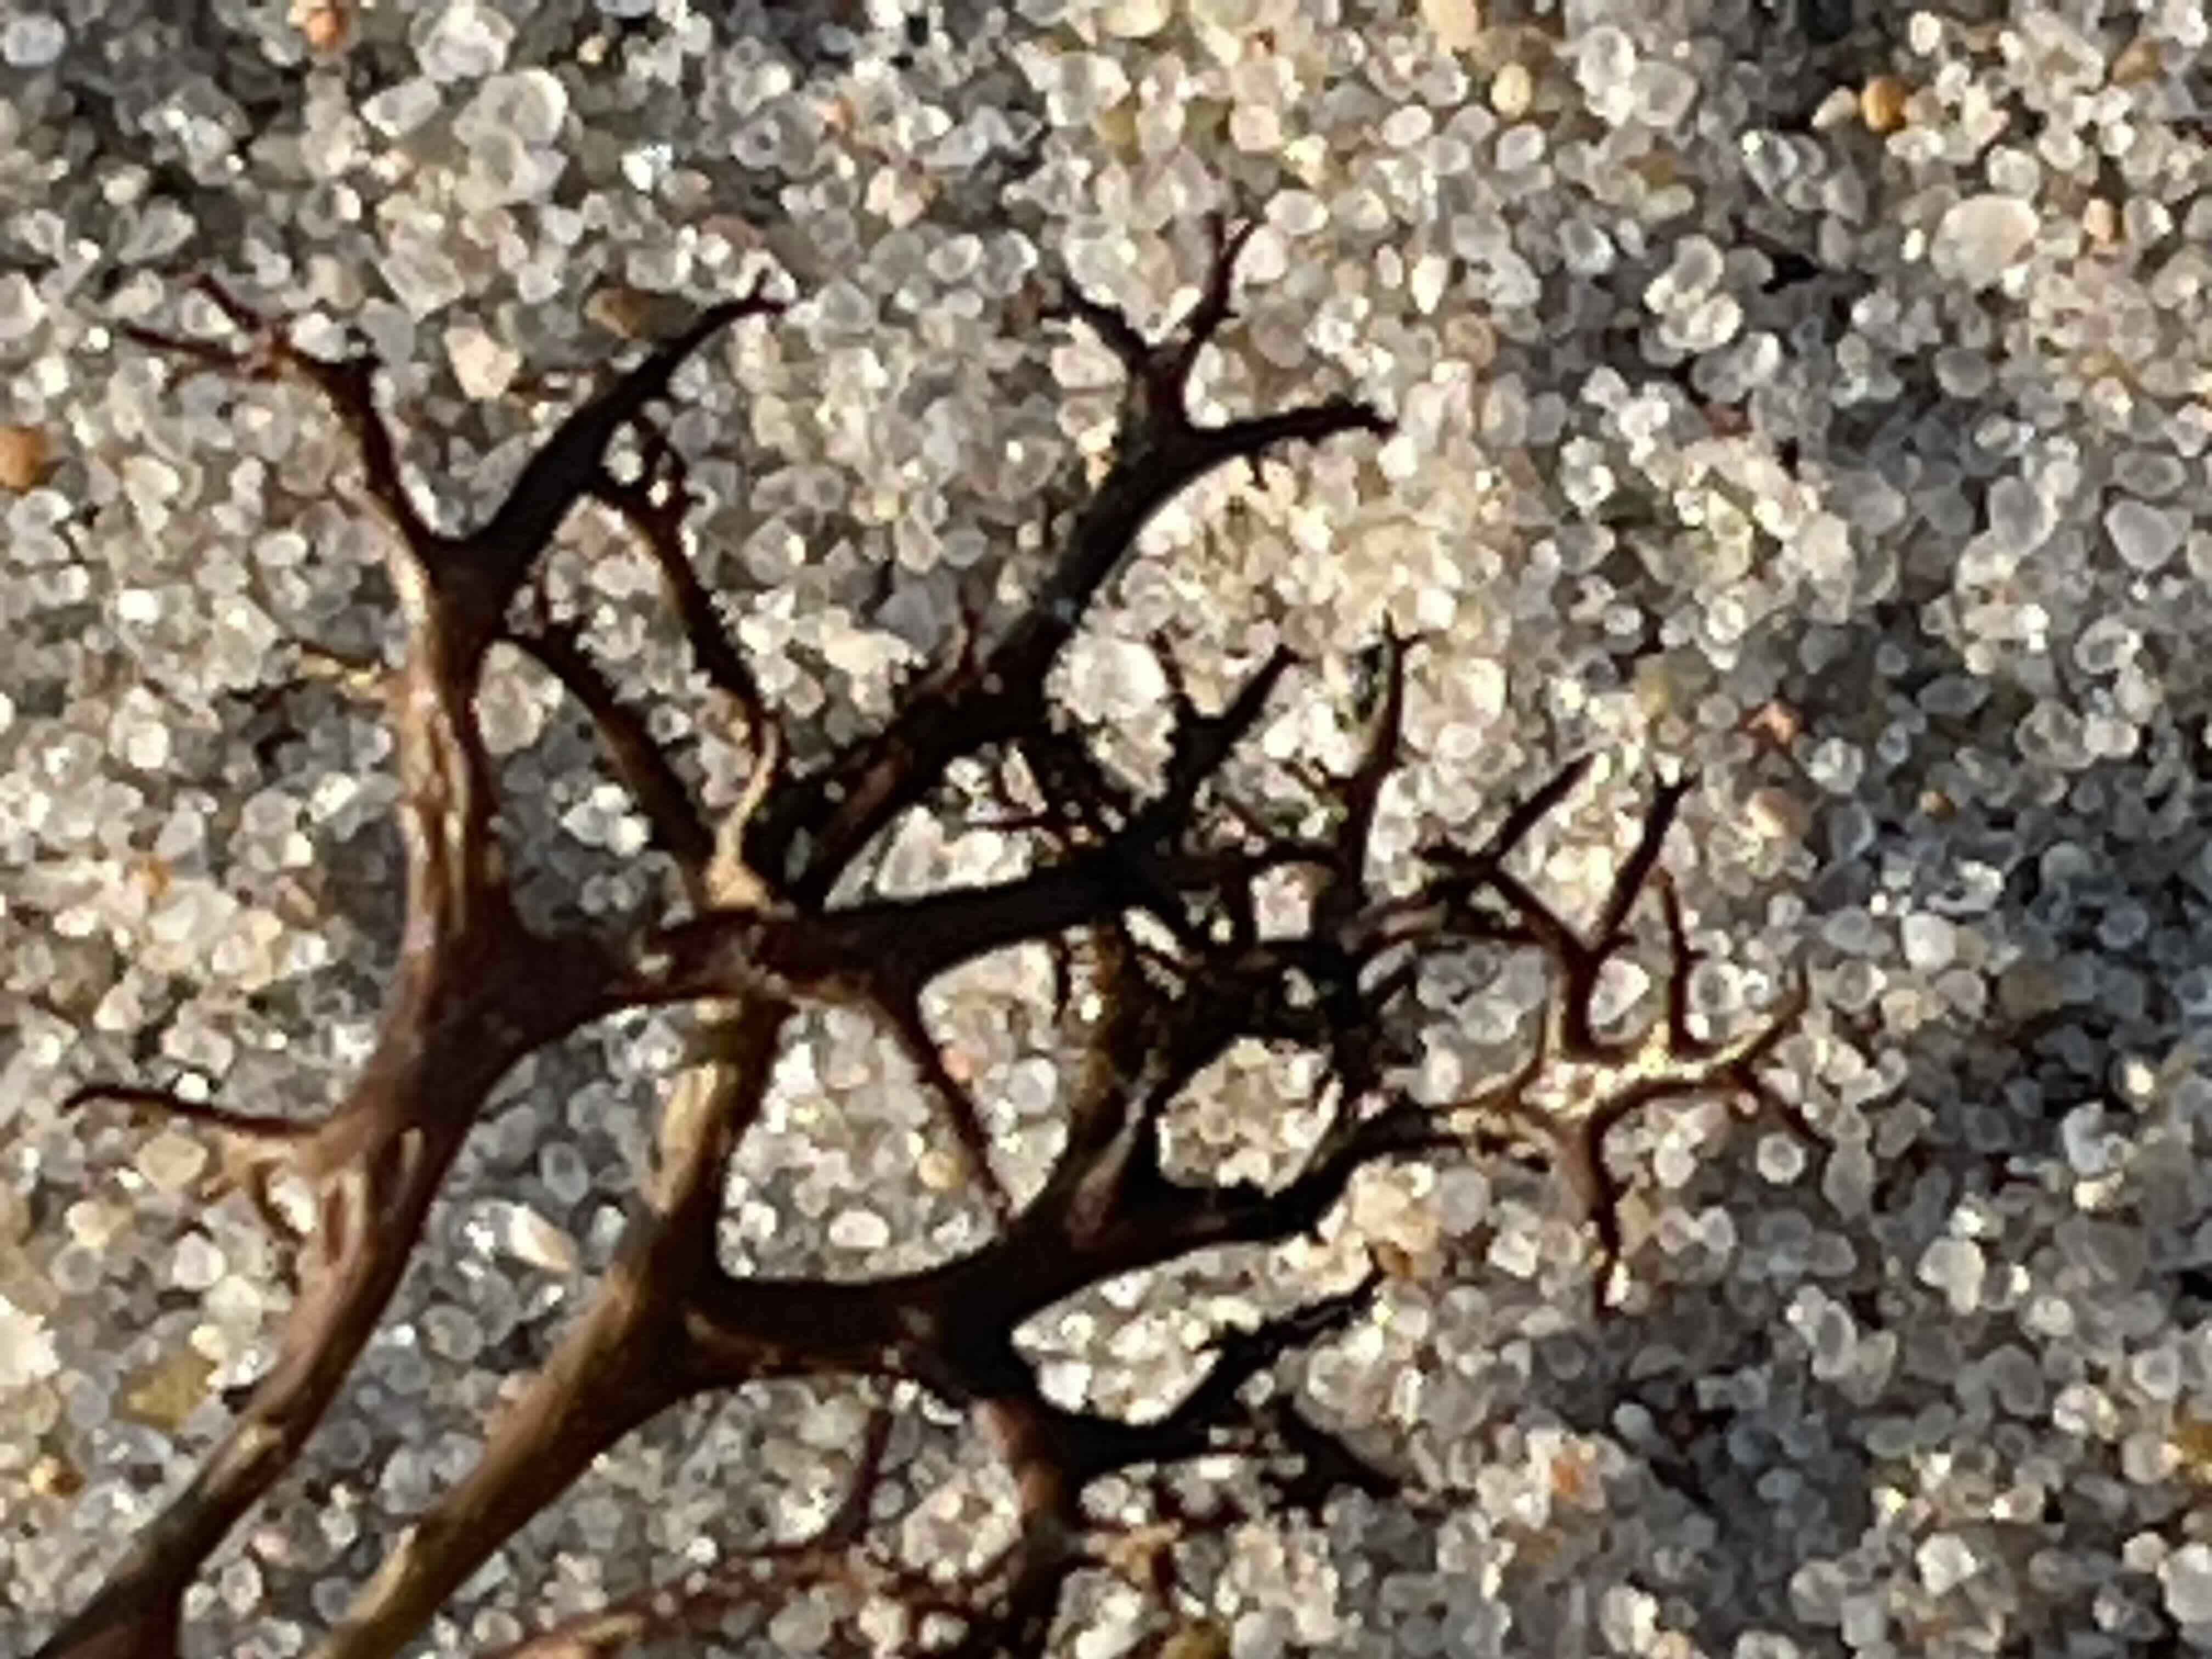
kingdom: Fungi
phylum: Ascomycota
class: Lecanoromycetes
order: Lecanorales
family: Parmeliaceae
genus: Cetraria
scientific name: Cetraria aculeata
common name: grubet tjørnelav
